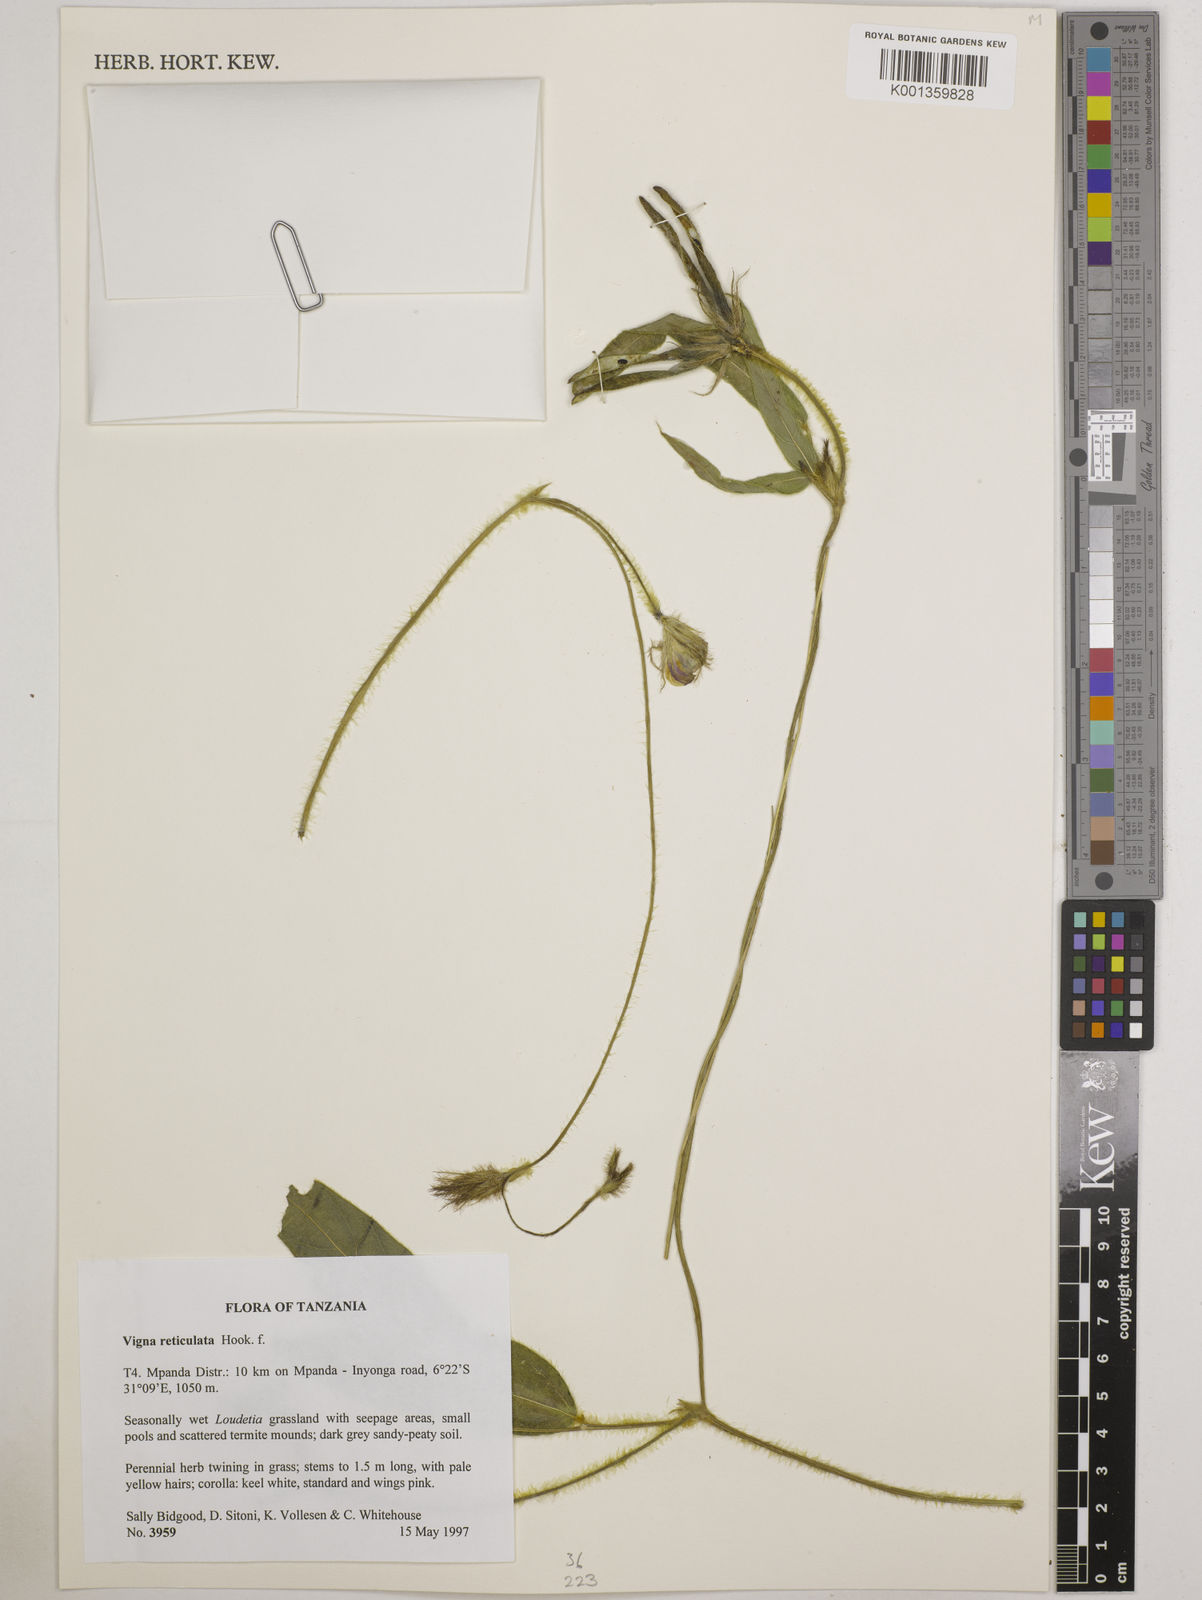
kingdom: Plantae
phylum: Tracheophyta
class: Magnoliopsida
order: Fabales
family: Fabaceae
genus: Vigna
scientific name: Vigna reticulata
